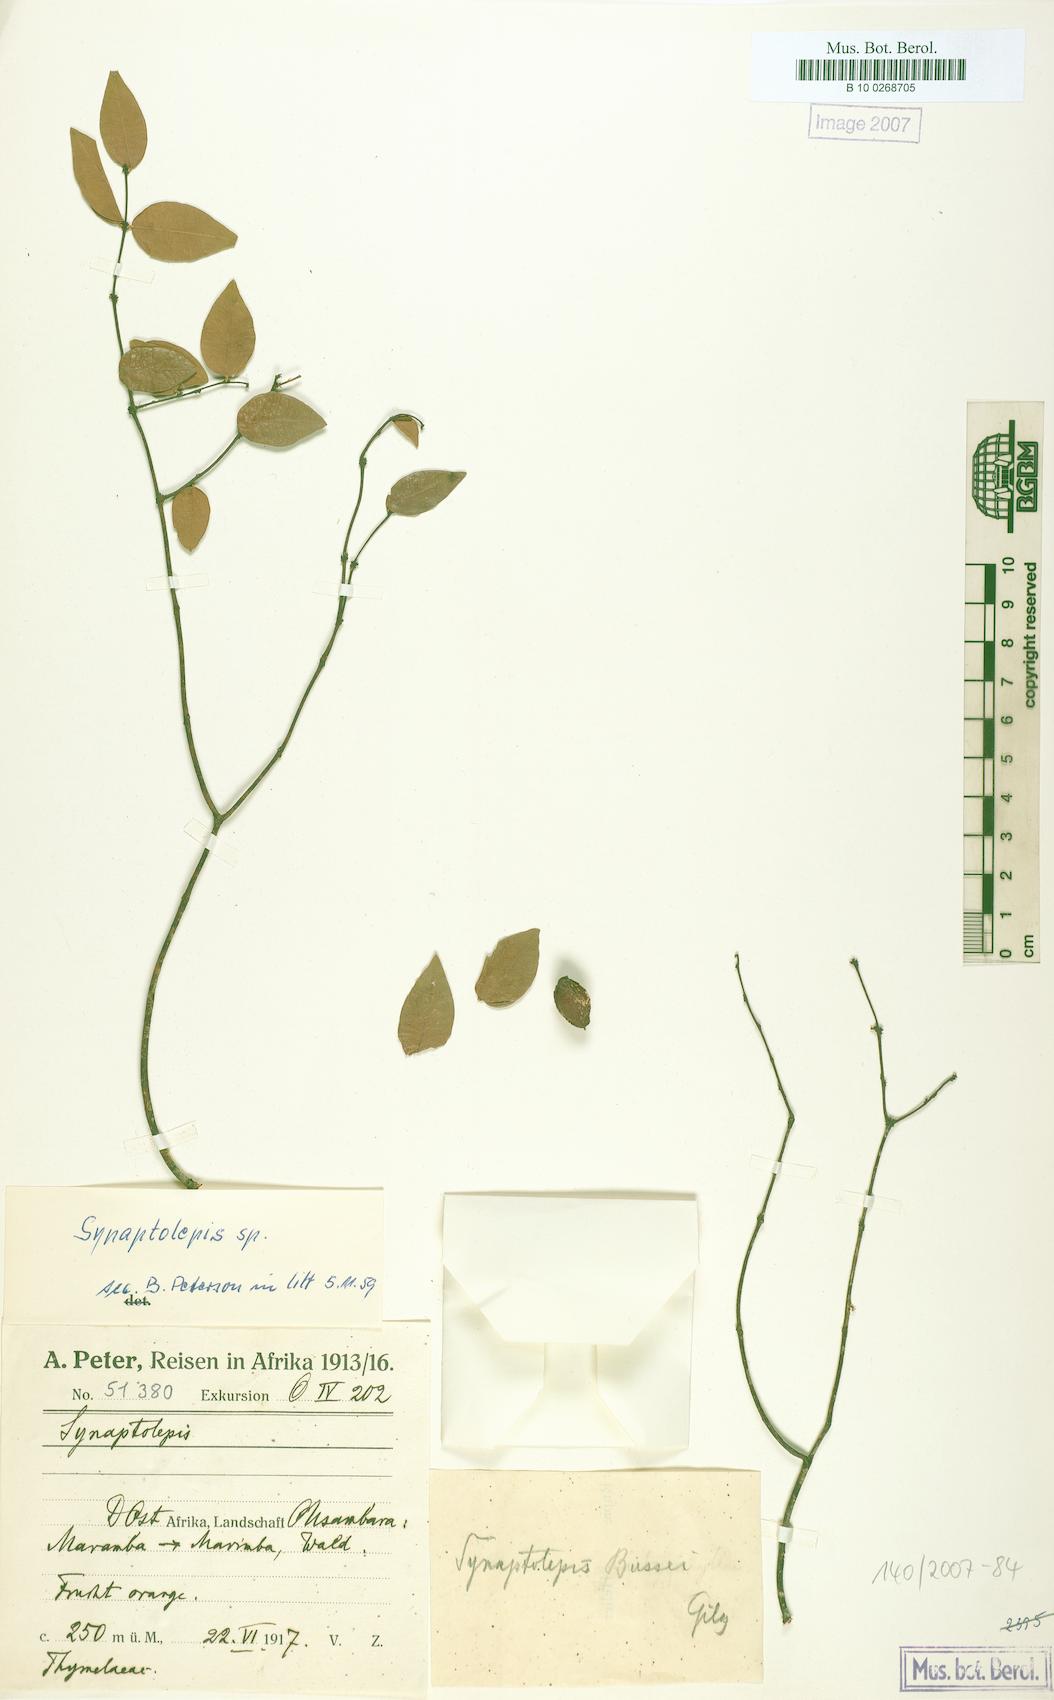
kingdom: Plantae
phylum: Tracheophyta
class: Magnoliopsida
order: Malvales
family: Thymelaeaceae
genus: Synaptolepis
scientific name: Synaptolepis
